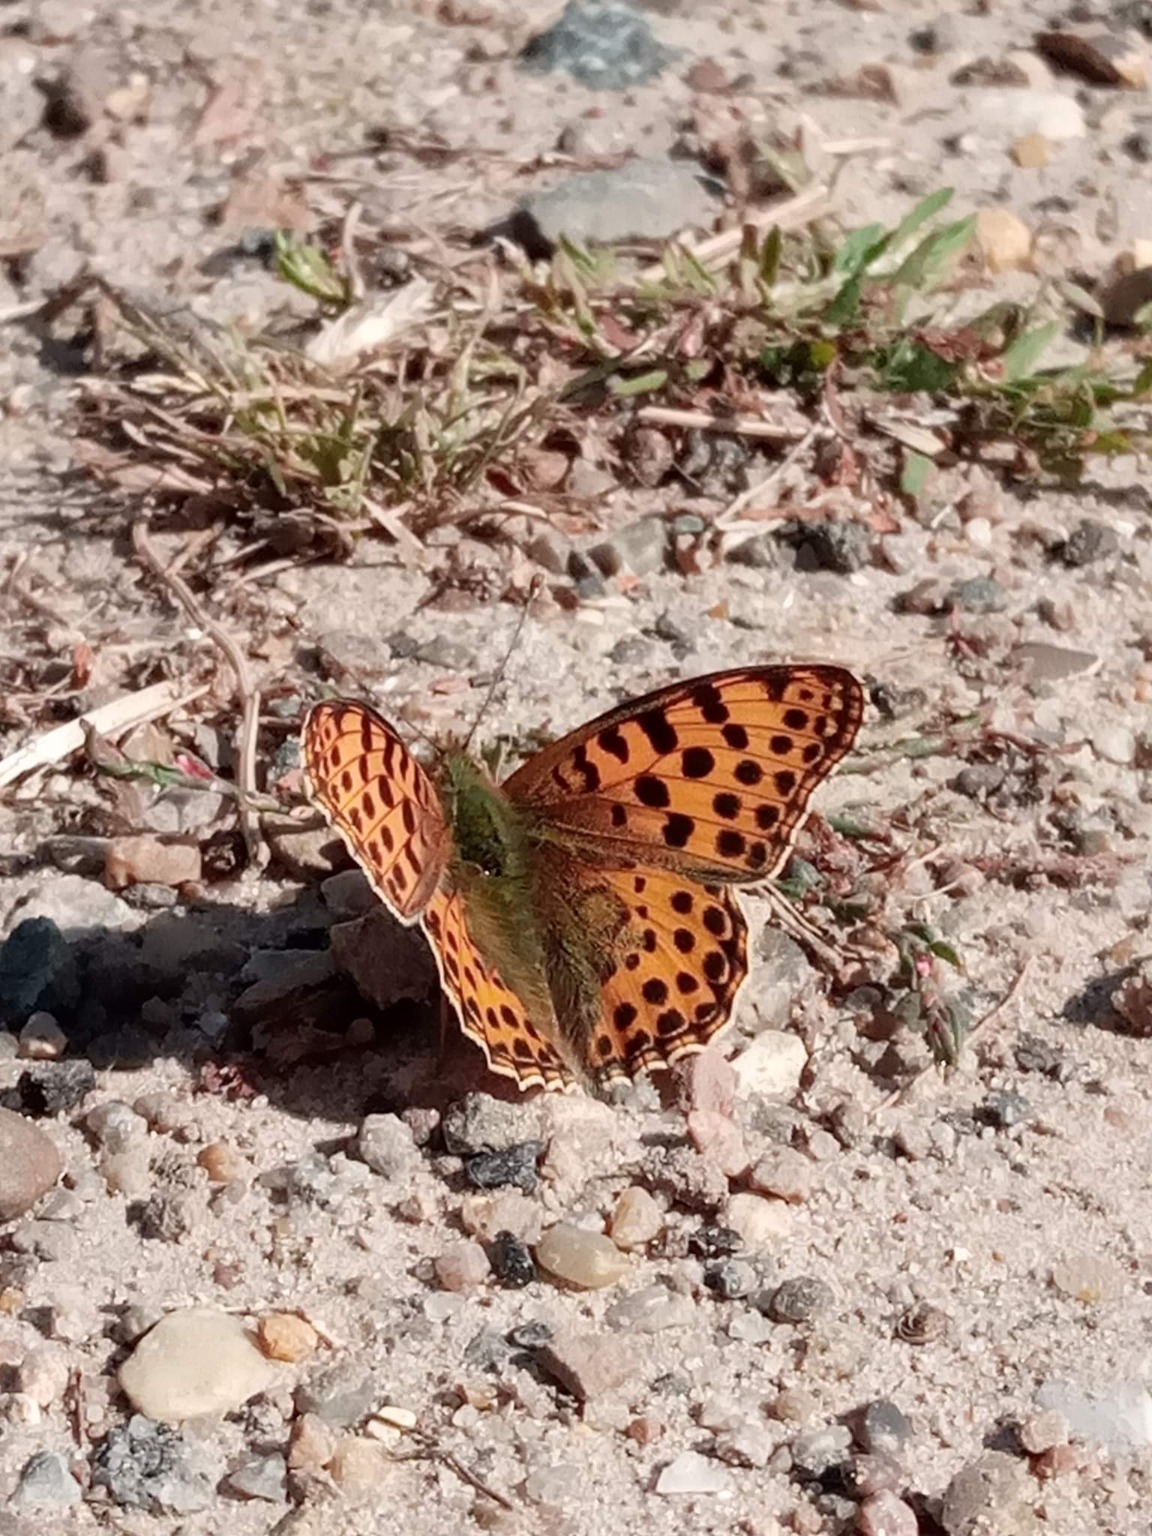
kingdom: Animalia
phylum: Arthropoda
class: Insecta
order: Lepidoptera
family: Nymphalidae
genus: Issoria
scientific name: Issoria lathonia
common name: Storplettet perlemorsommerfugl
